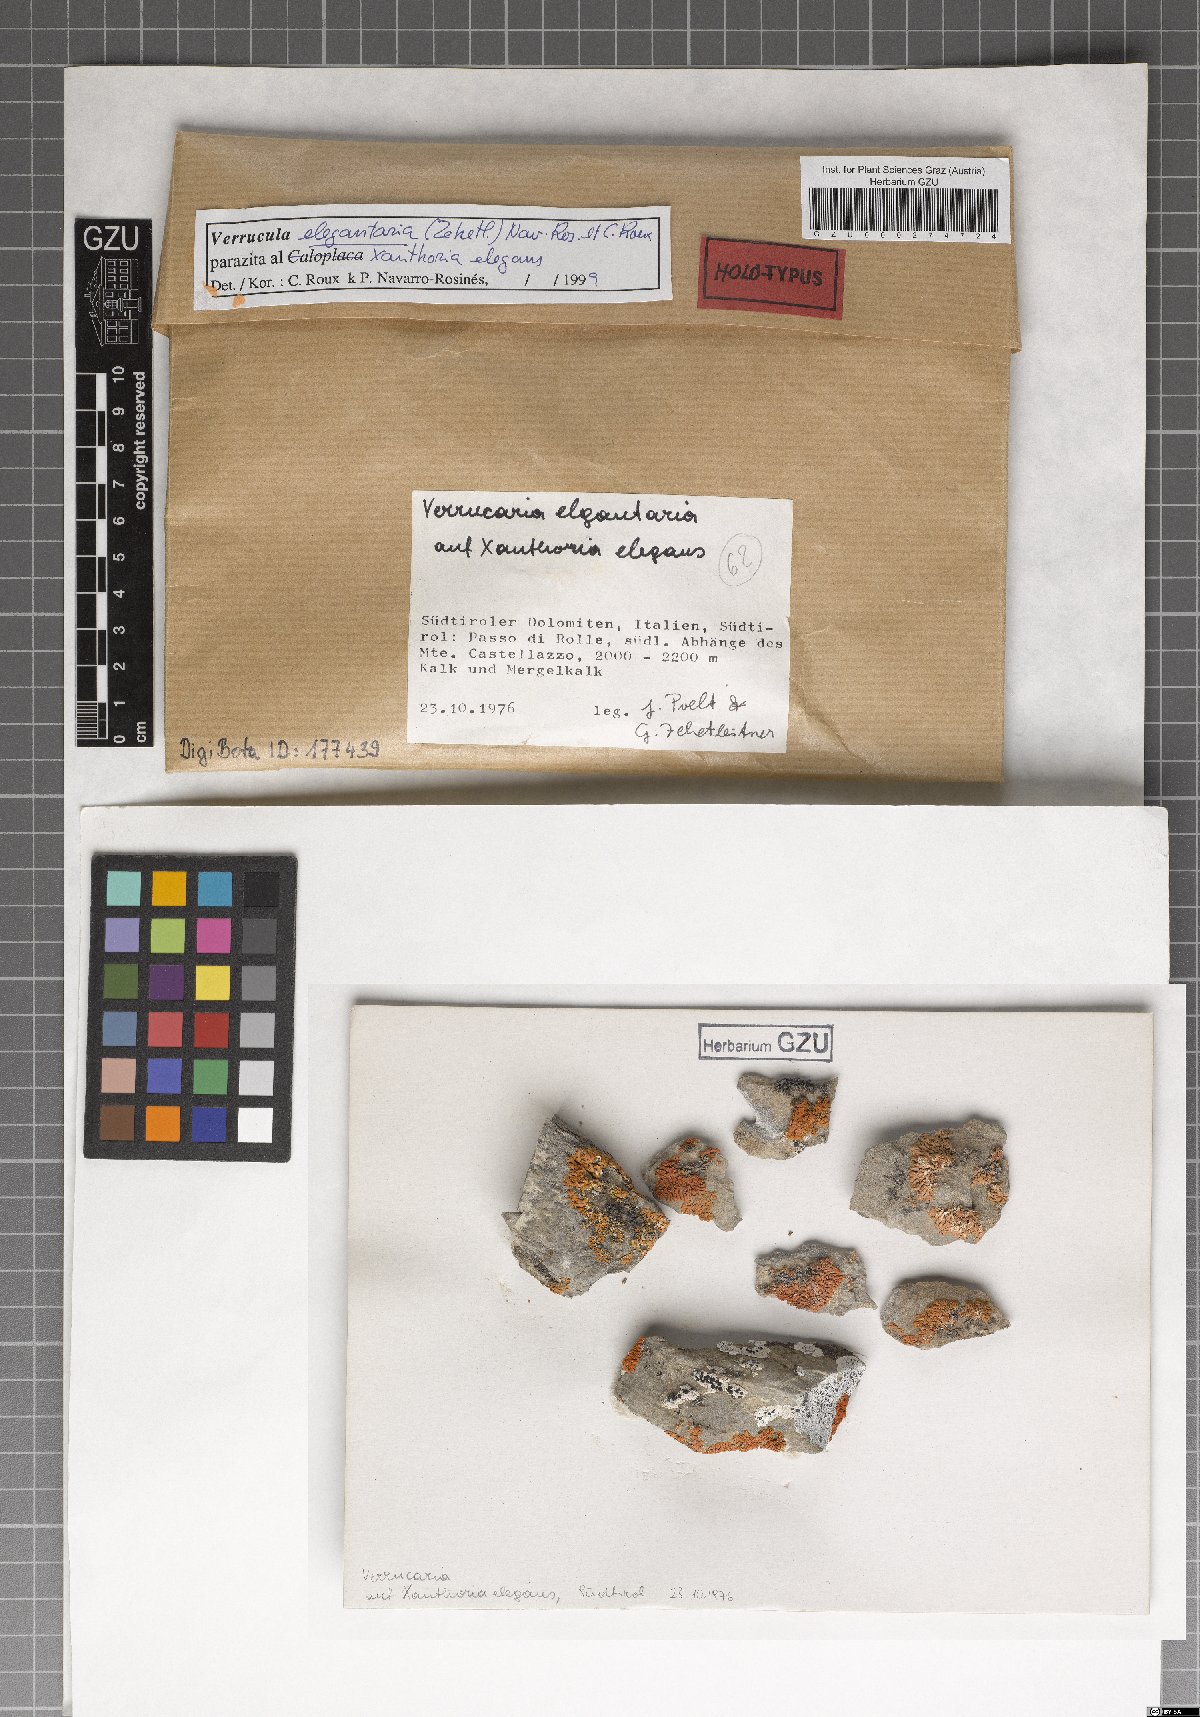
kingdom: Fungi
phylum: Ascomycota
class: Eurotiomycetes
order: Verrucariales
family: Verrucariaceae
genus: Verrucula
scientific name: Verrucula elegantaria
